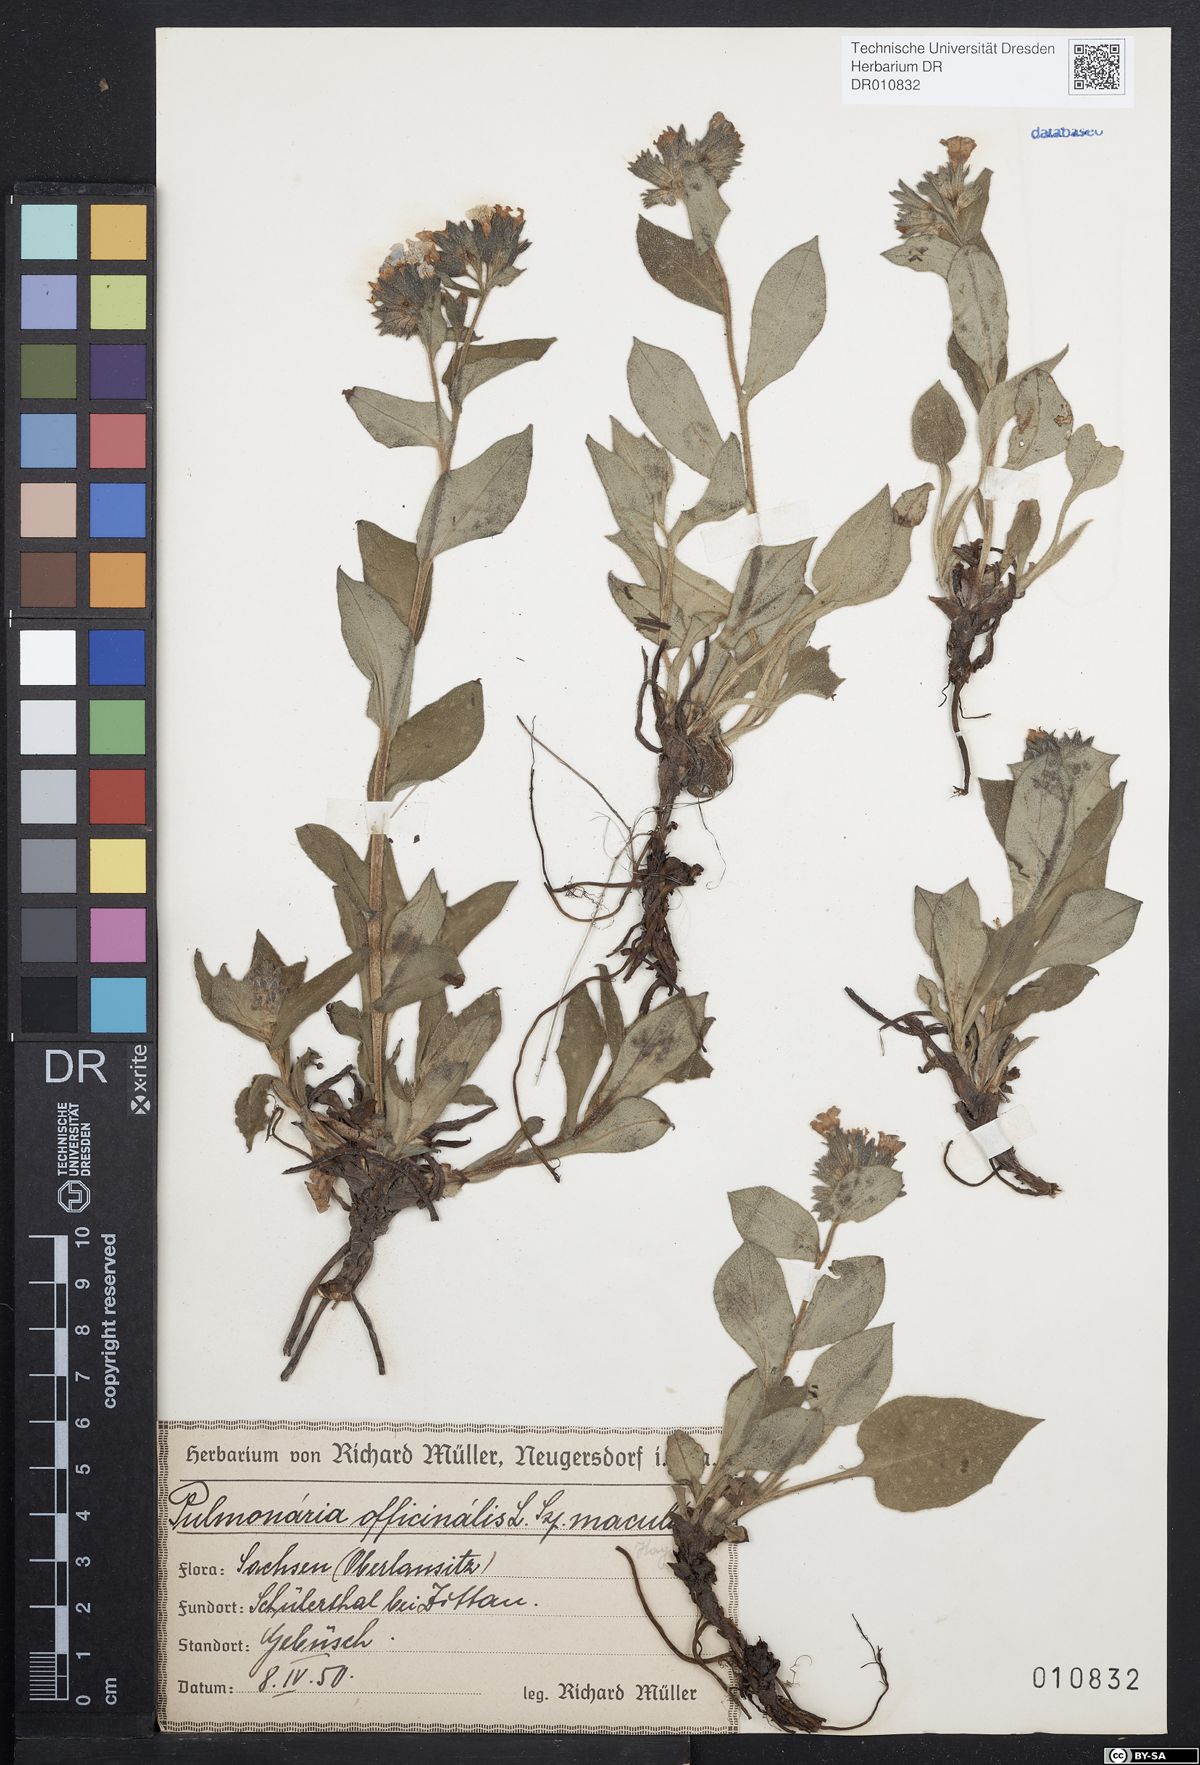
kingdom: Plantae
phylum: Tracheophyta
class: Magnoliopsida
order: Boraginales
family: Boraginaceae
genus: Pulmonaria
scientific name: Pulmonaria officinalis
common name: Lungwort
